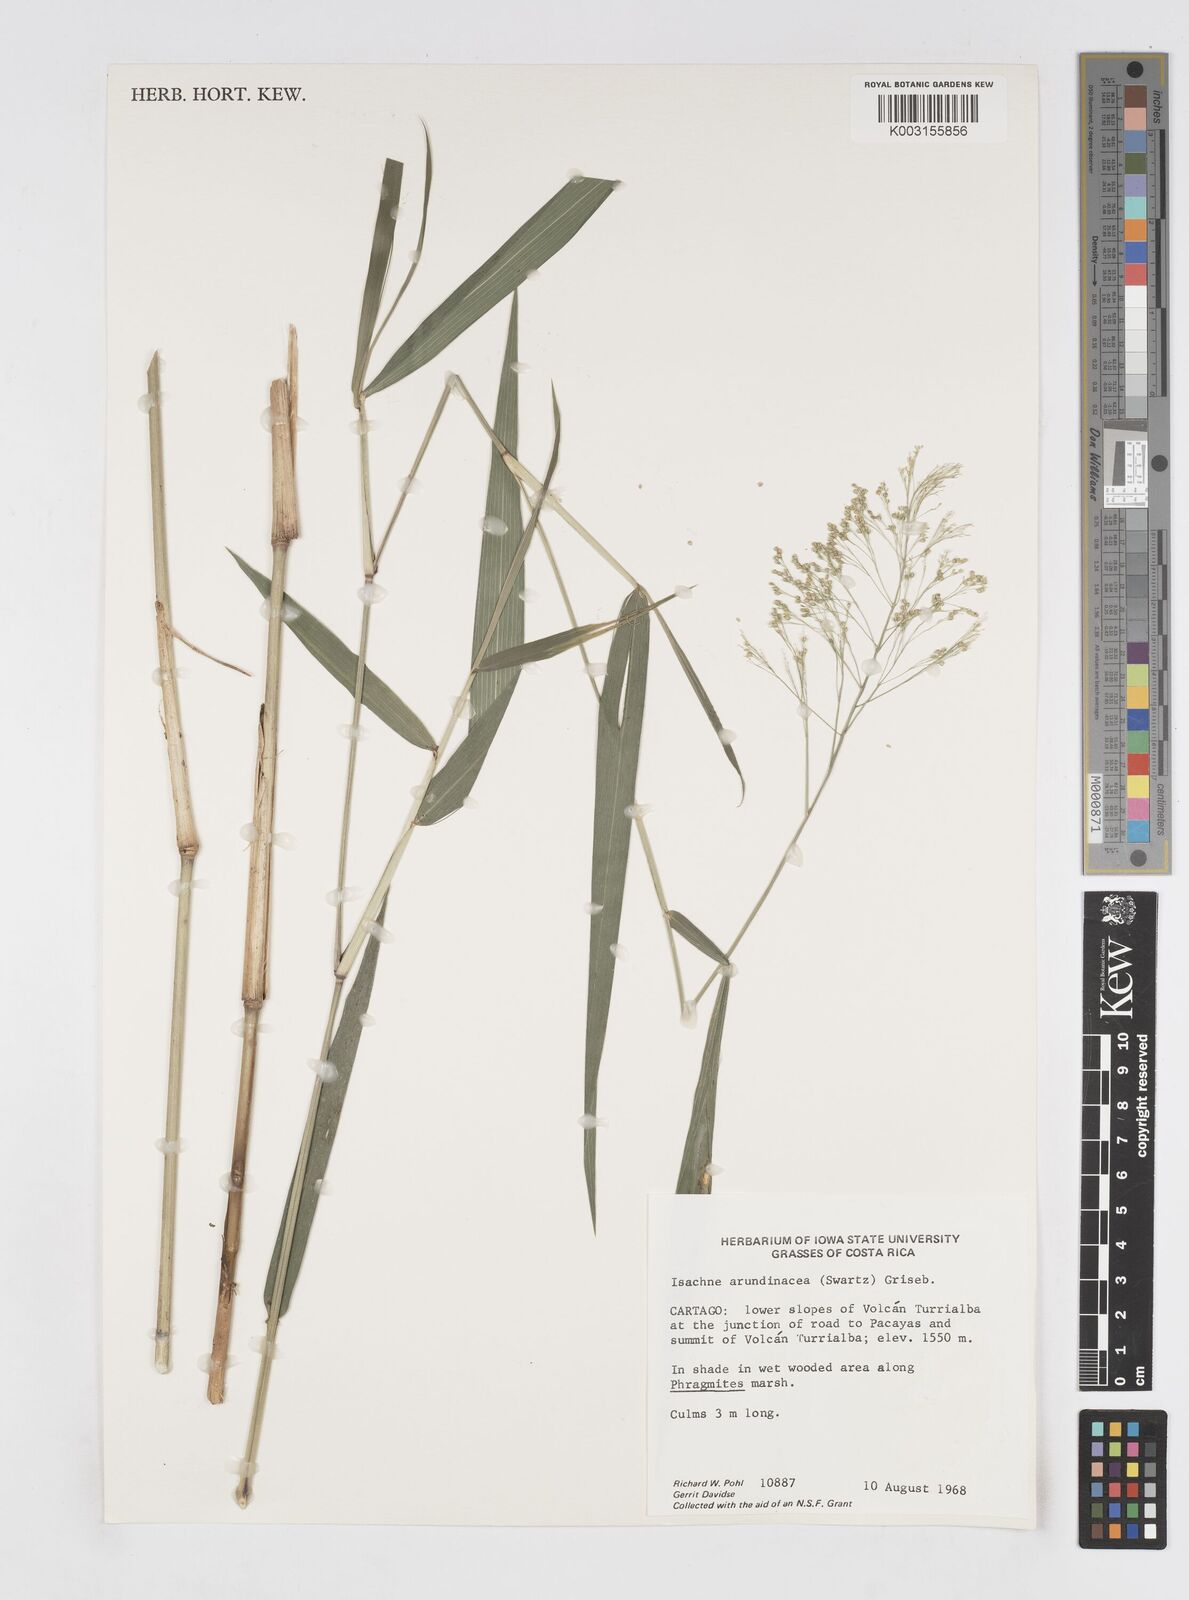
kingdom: Plantae
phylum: Tracheophyta
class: Liliopsida
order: Poales
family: Poaceae
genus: Isachne
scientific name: Isachne arundinacea
